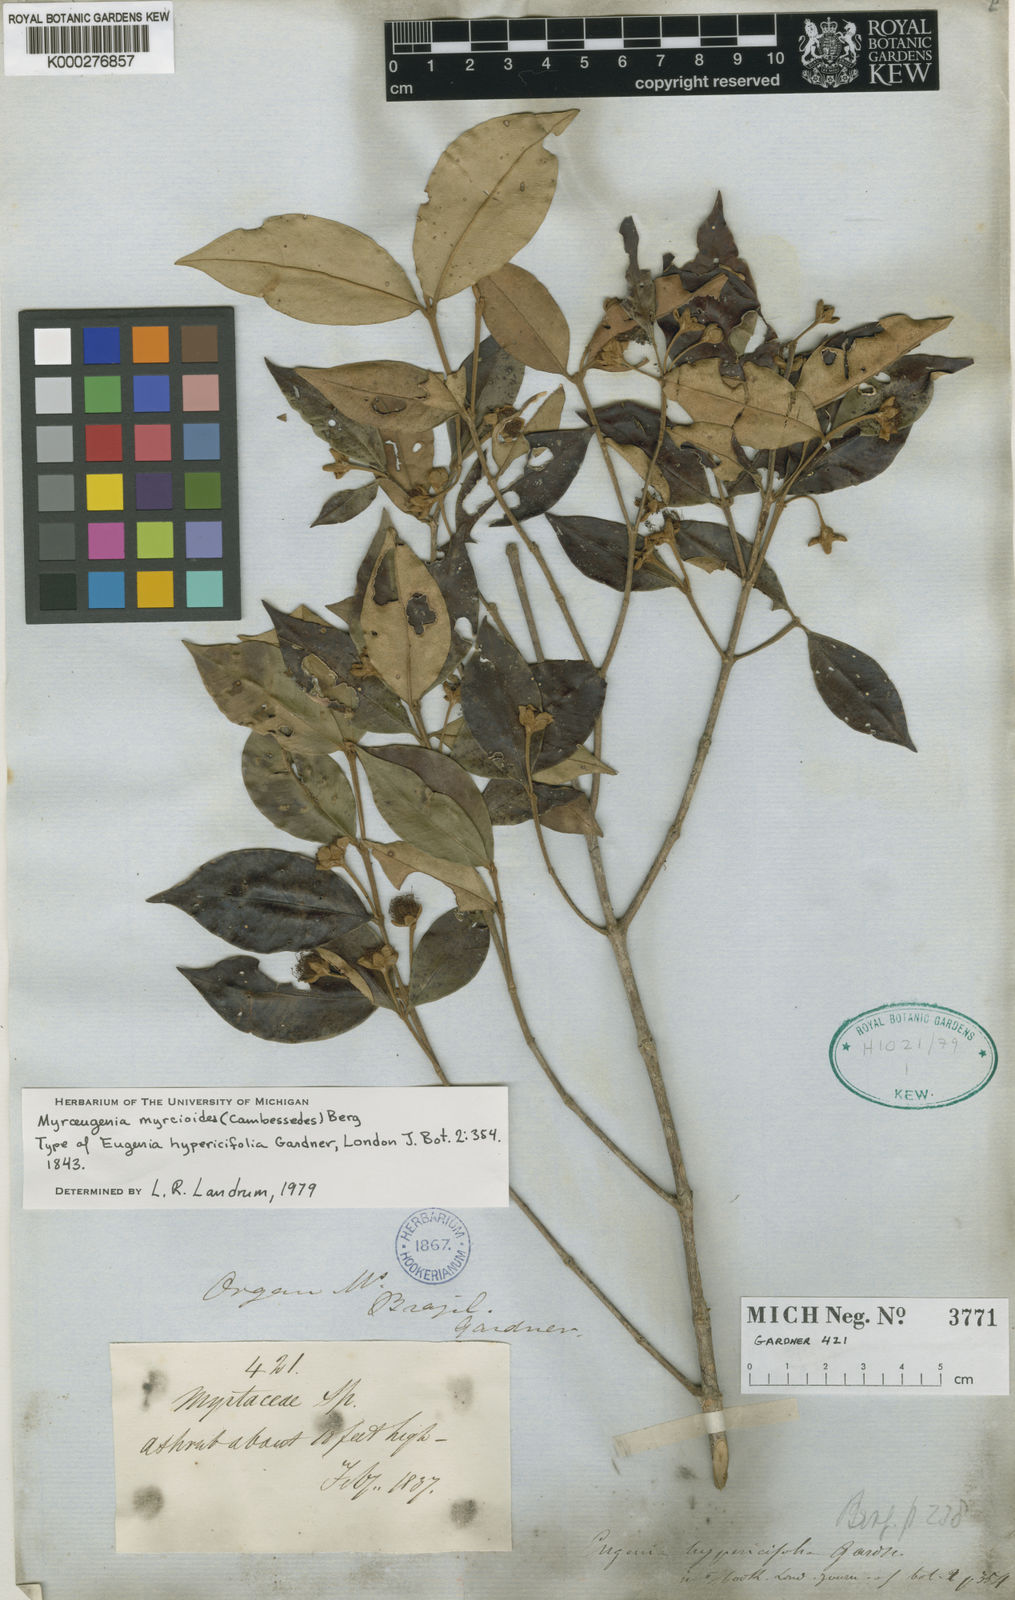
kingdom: Plantae
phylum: Tracheophyta
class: Magnoliopsida
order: Myrtales
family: Myrtaceae
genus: Myrceugenia
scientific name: Myrceugenia myrcioides
